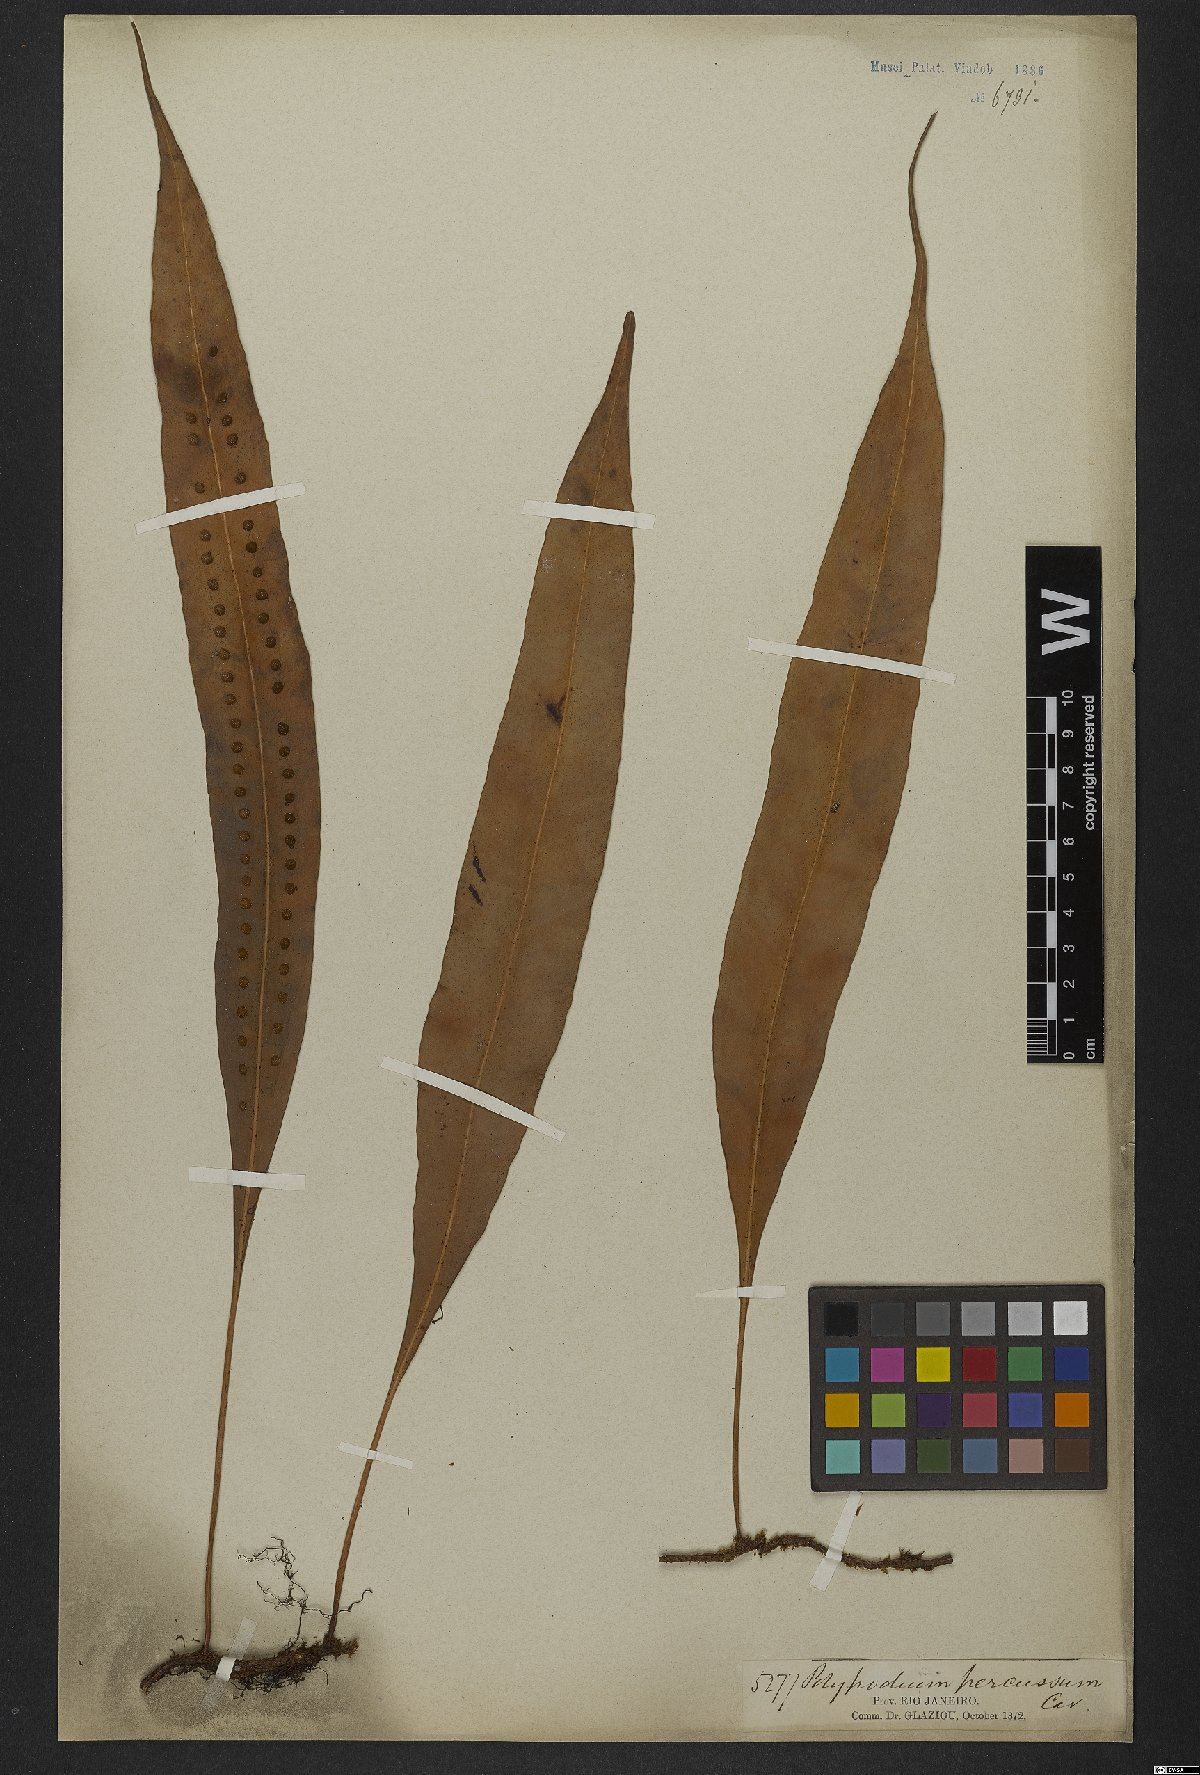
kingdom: Plantae
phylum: Tracheophyta
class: Polypodiopsida
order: Polypodiales
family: Polypodiaceae
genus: Microgramma
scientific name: Microgramma percussa
